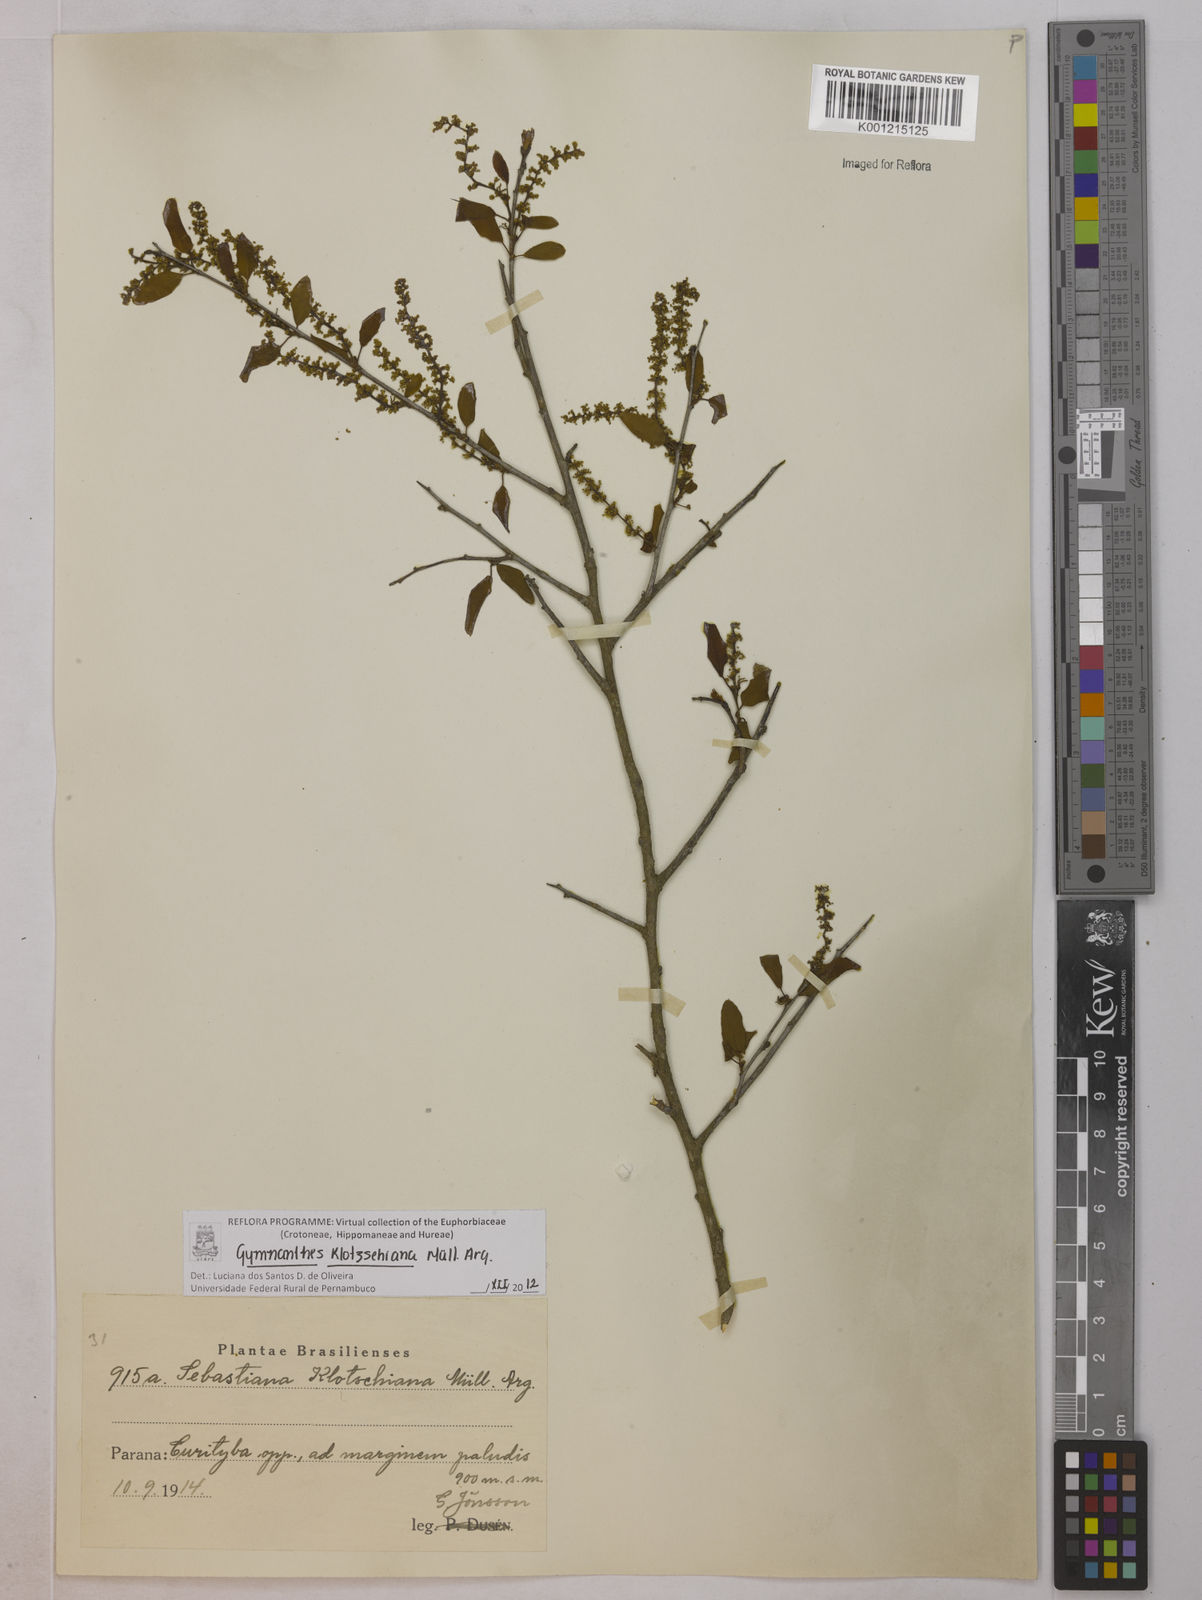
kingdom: Plantae
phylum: Tracheophyta
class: Magnoliopsida
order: Malpighiales
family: Euphorbiaceae
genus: Gymnanthes
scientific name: Gymnanthes
